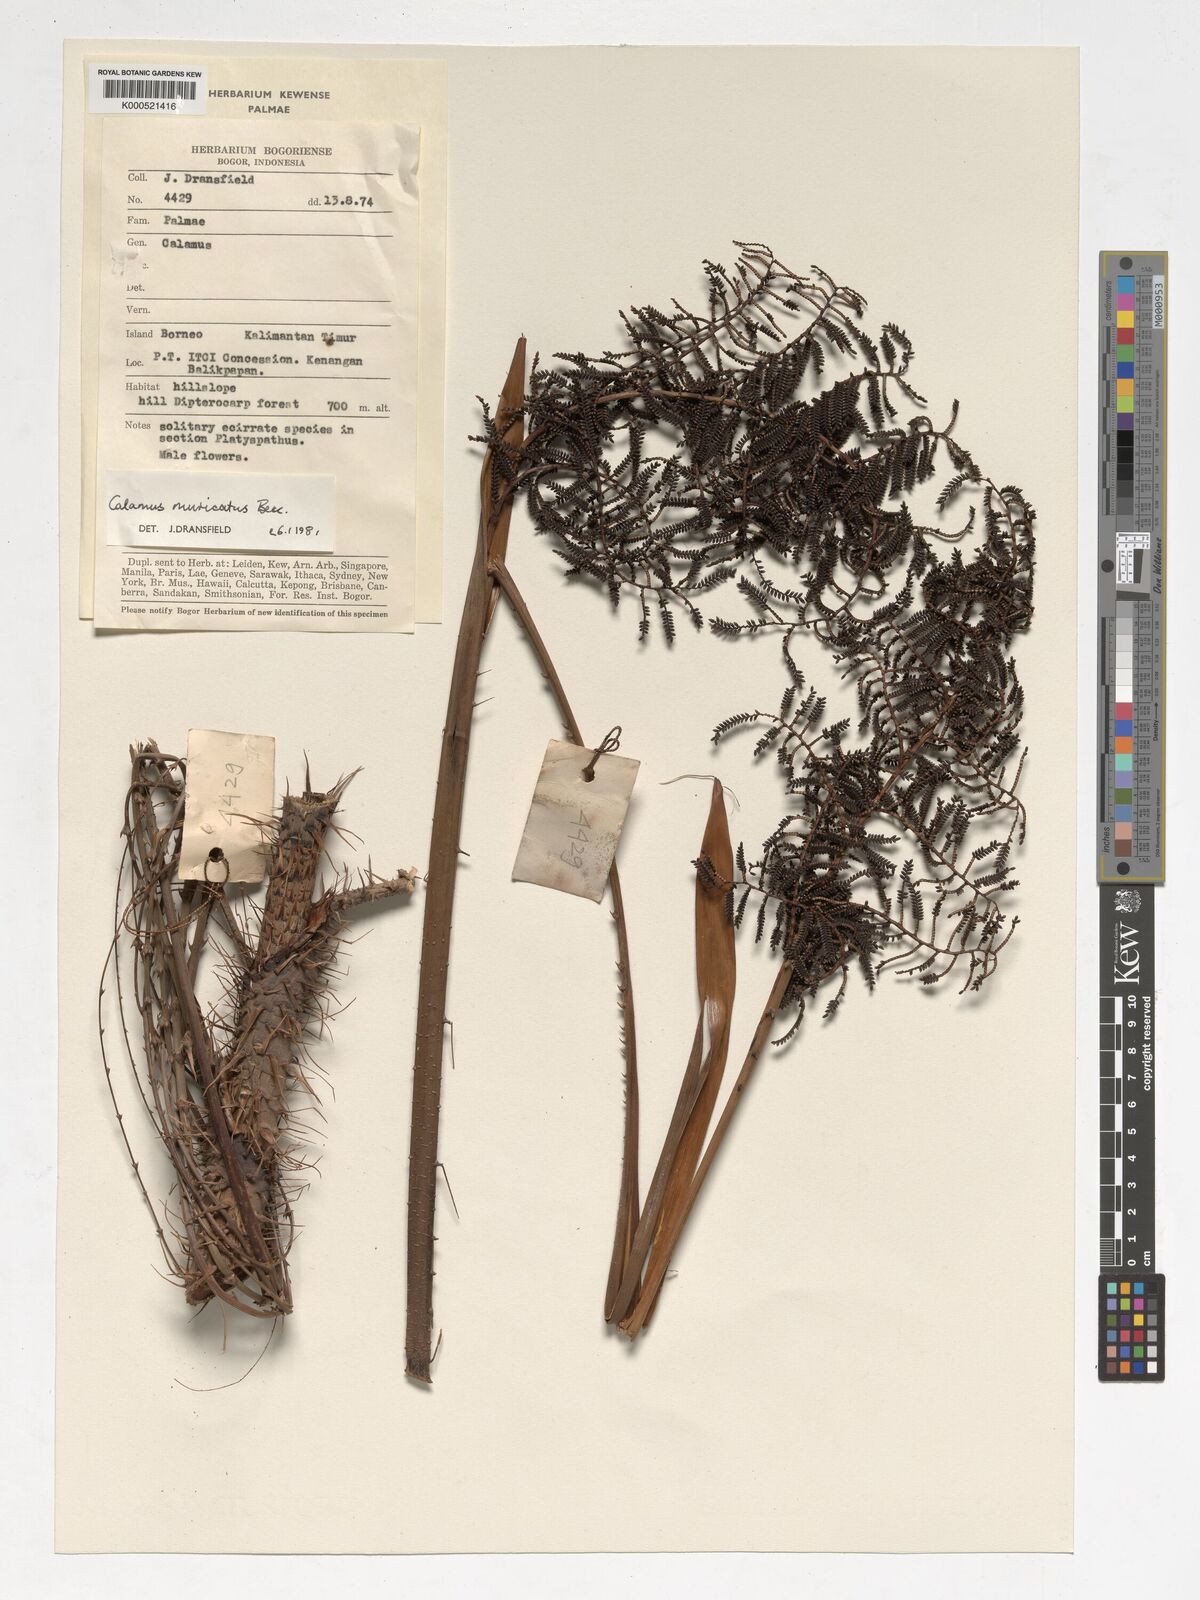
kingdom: Plantae
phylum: Tracheophyta
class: Liliopsida
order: Arecales
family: Arecaceae
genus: Calamus
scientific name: Calamus muricatus
